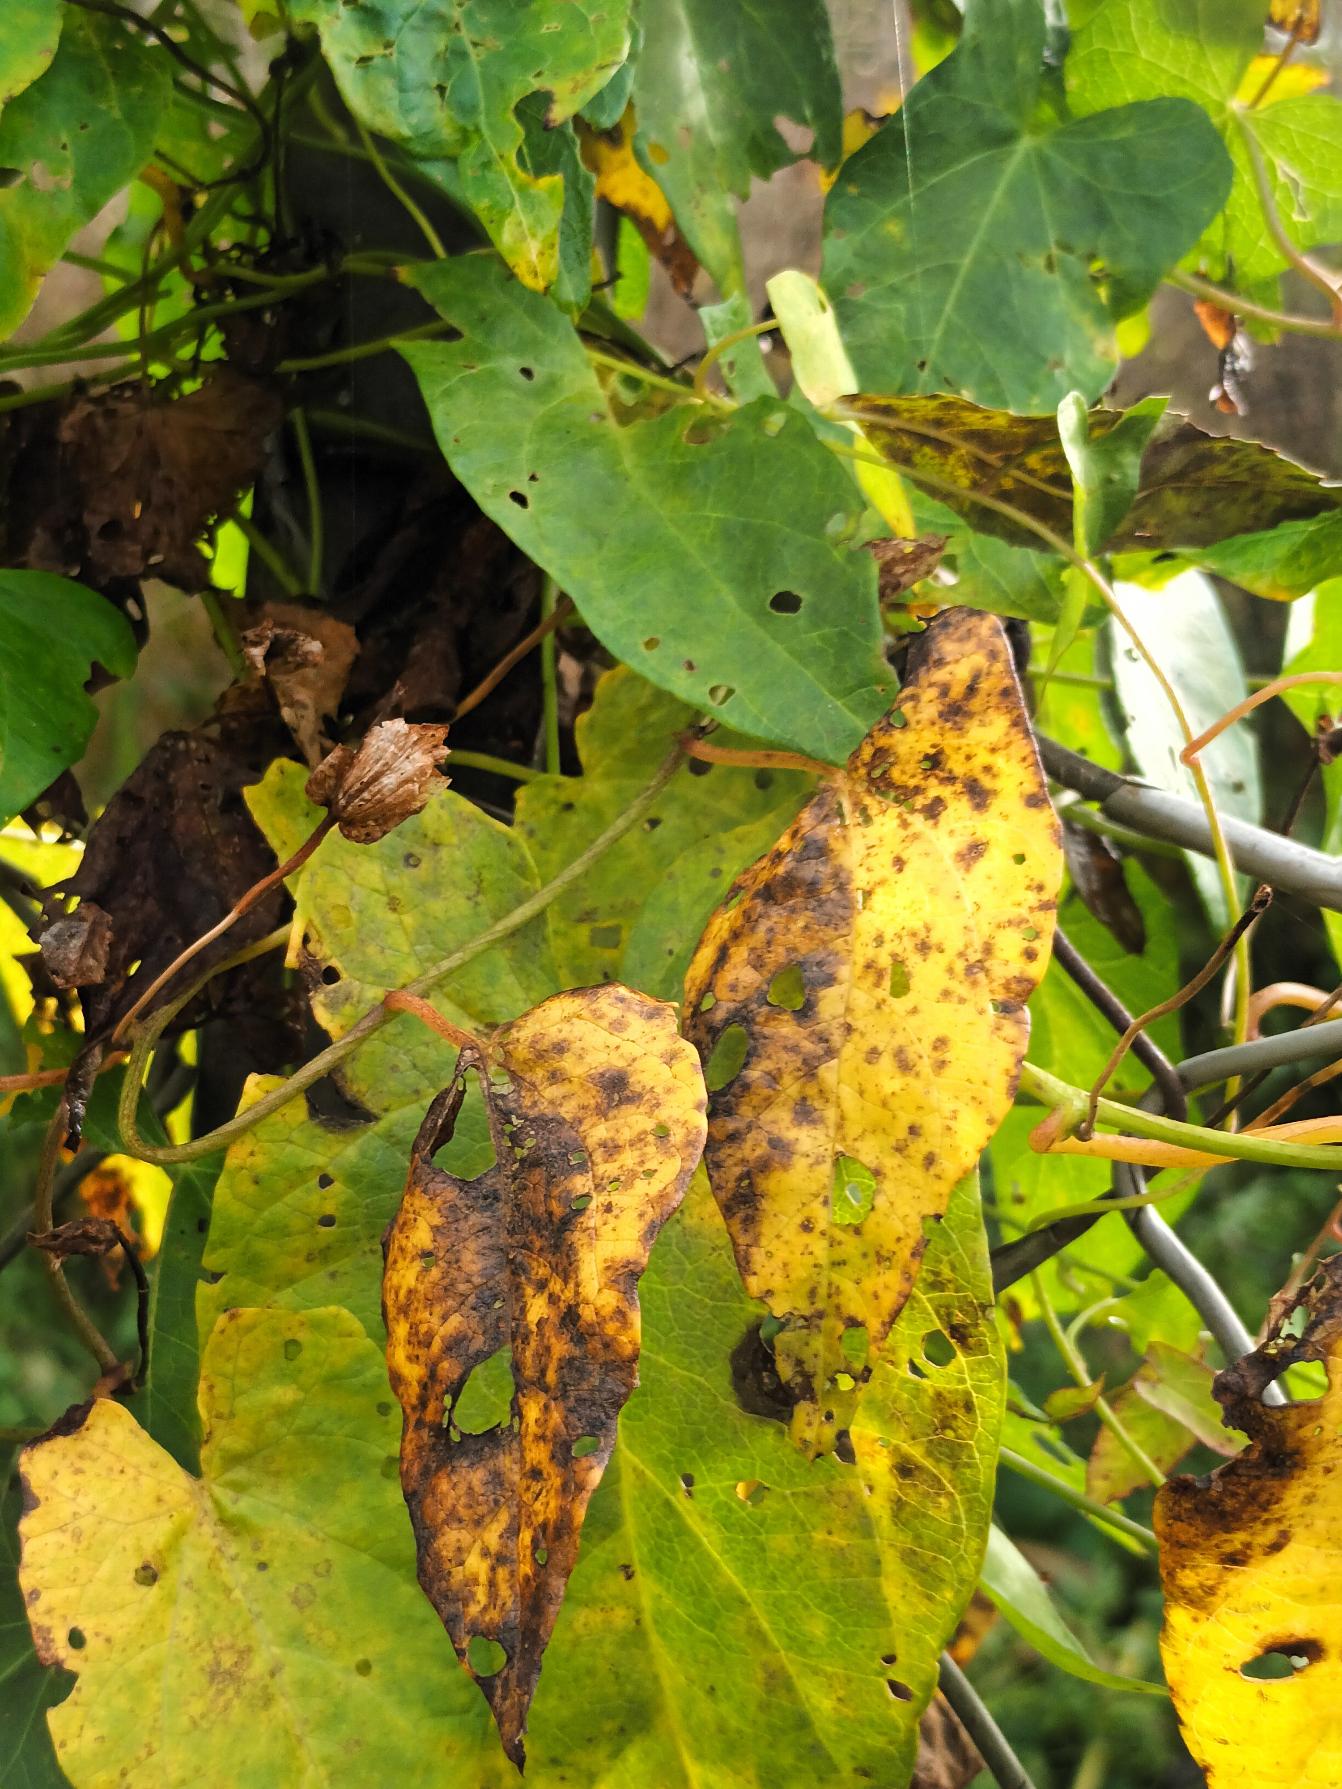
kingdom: Plantae
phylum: Tracheophyta
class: Magnoliopsida
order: Solanales
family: Convolvulaceae
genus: Calystegia
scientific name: Calystegia sepium
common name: Gærde-snerle
